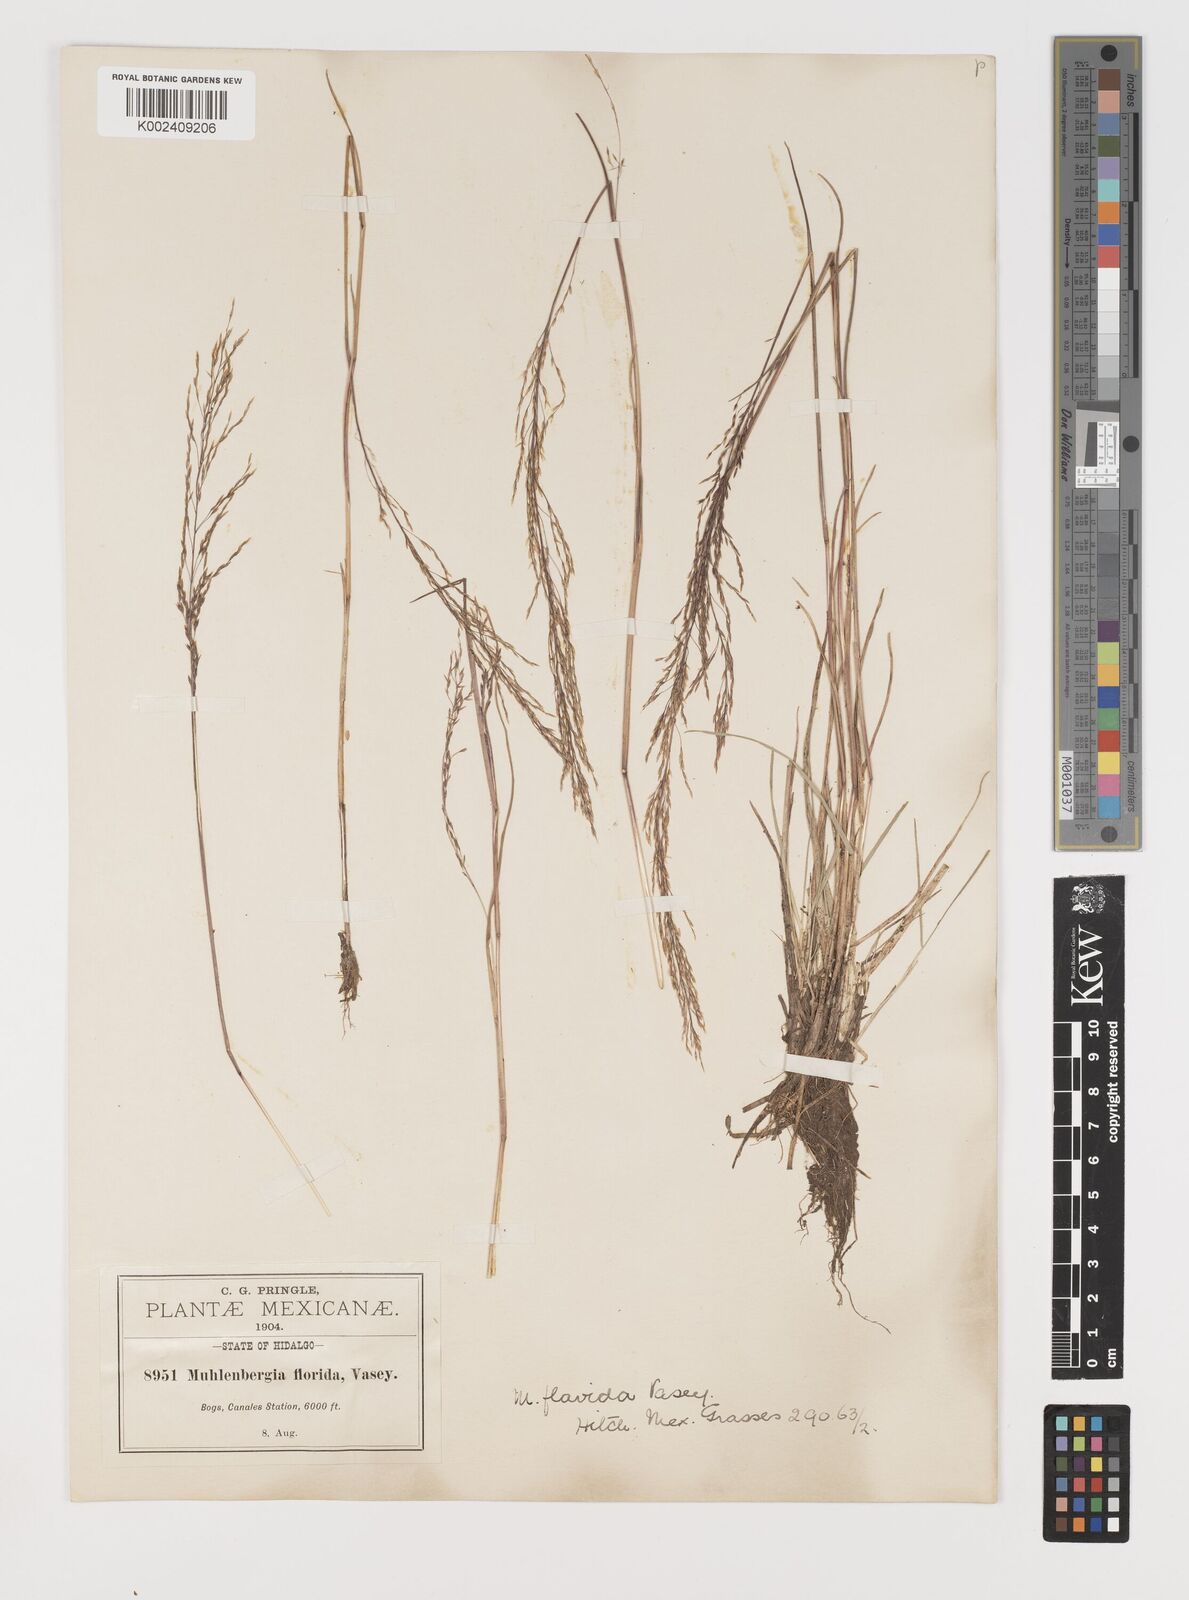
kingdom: Plantae
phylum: Tracheophyta
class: Liliopsida
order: Poales
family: Poaceae
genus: Muhlenbergia
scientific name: Muhlenbergia flavida
